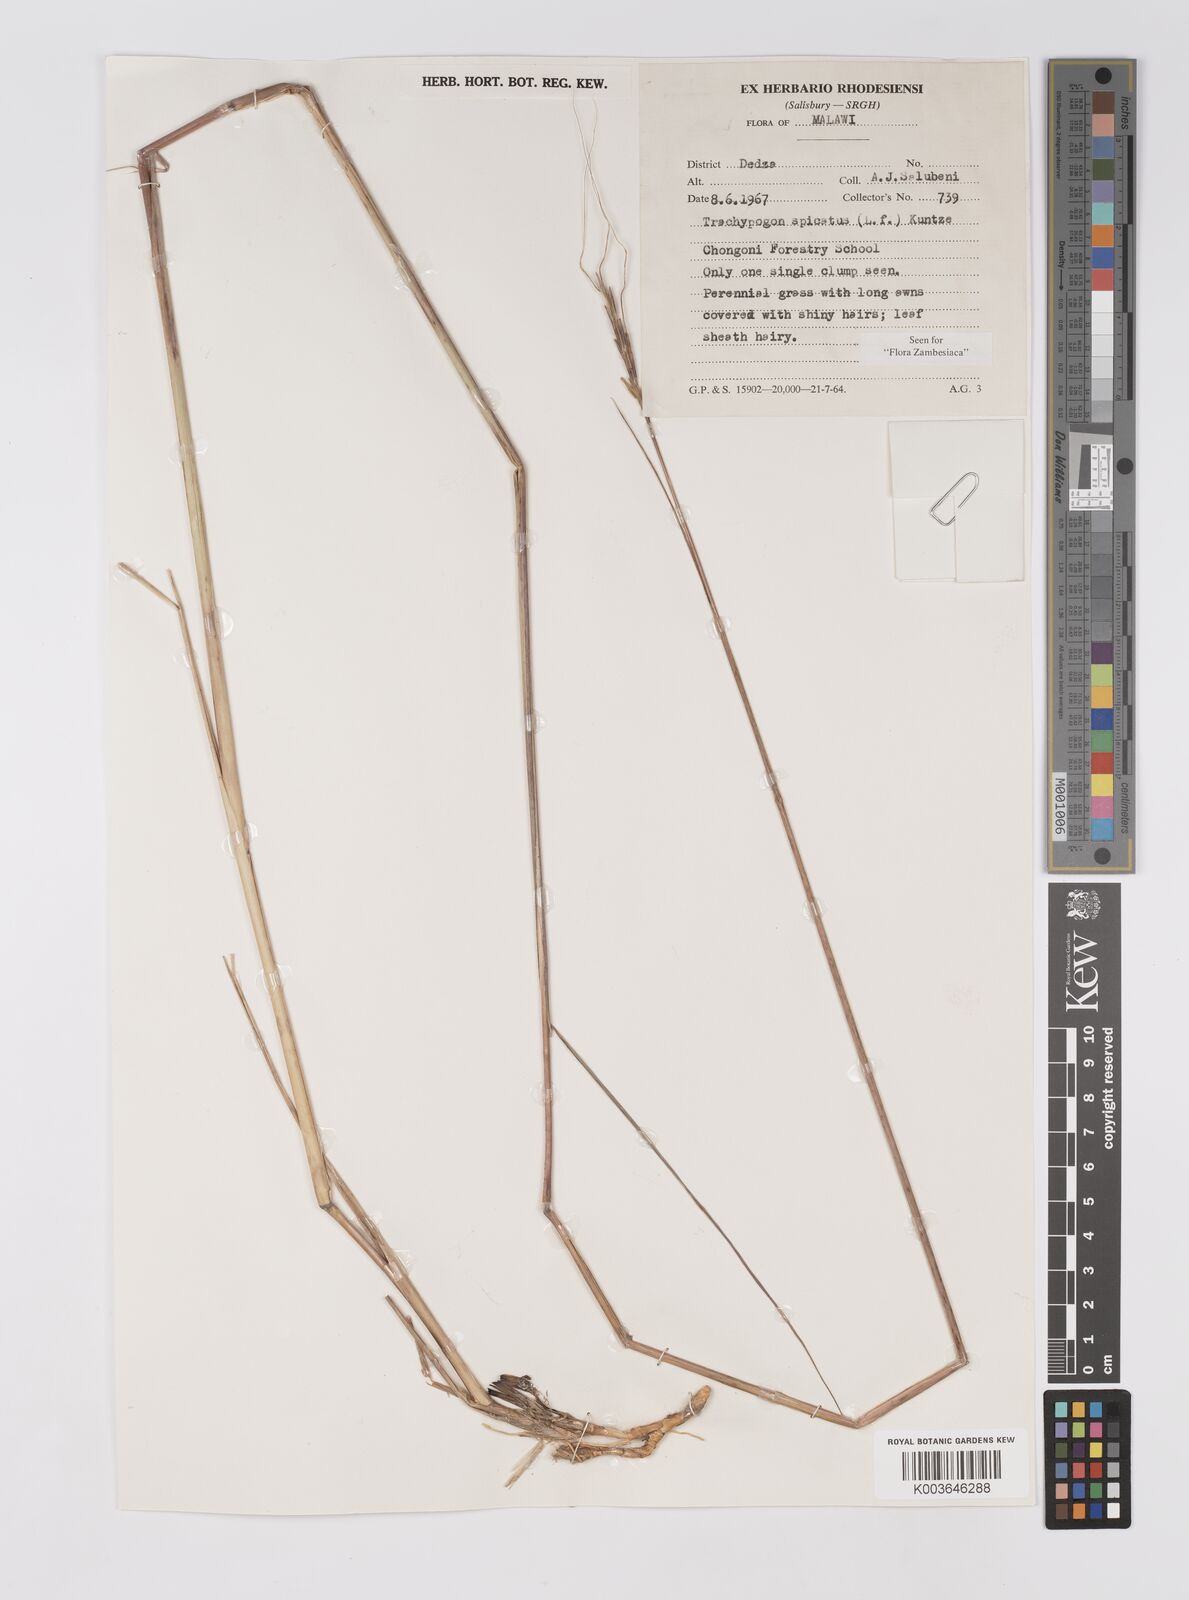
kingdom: Plantae
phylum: Tracheophyta
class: Liliopsida
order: Poales
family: Poaceae
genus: Trachypogon
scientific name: Trachypogon spicatus
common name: Crinkle-awn
